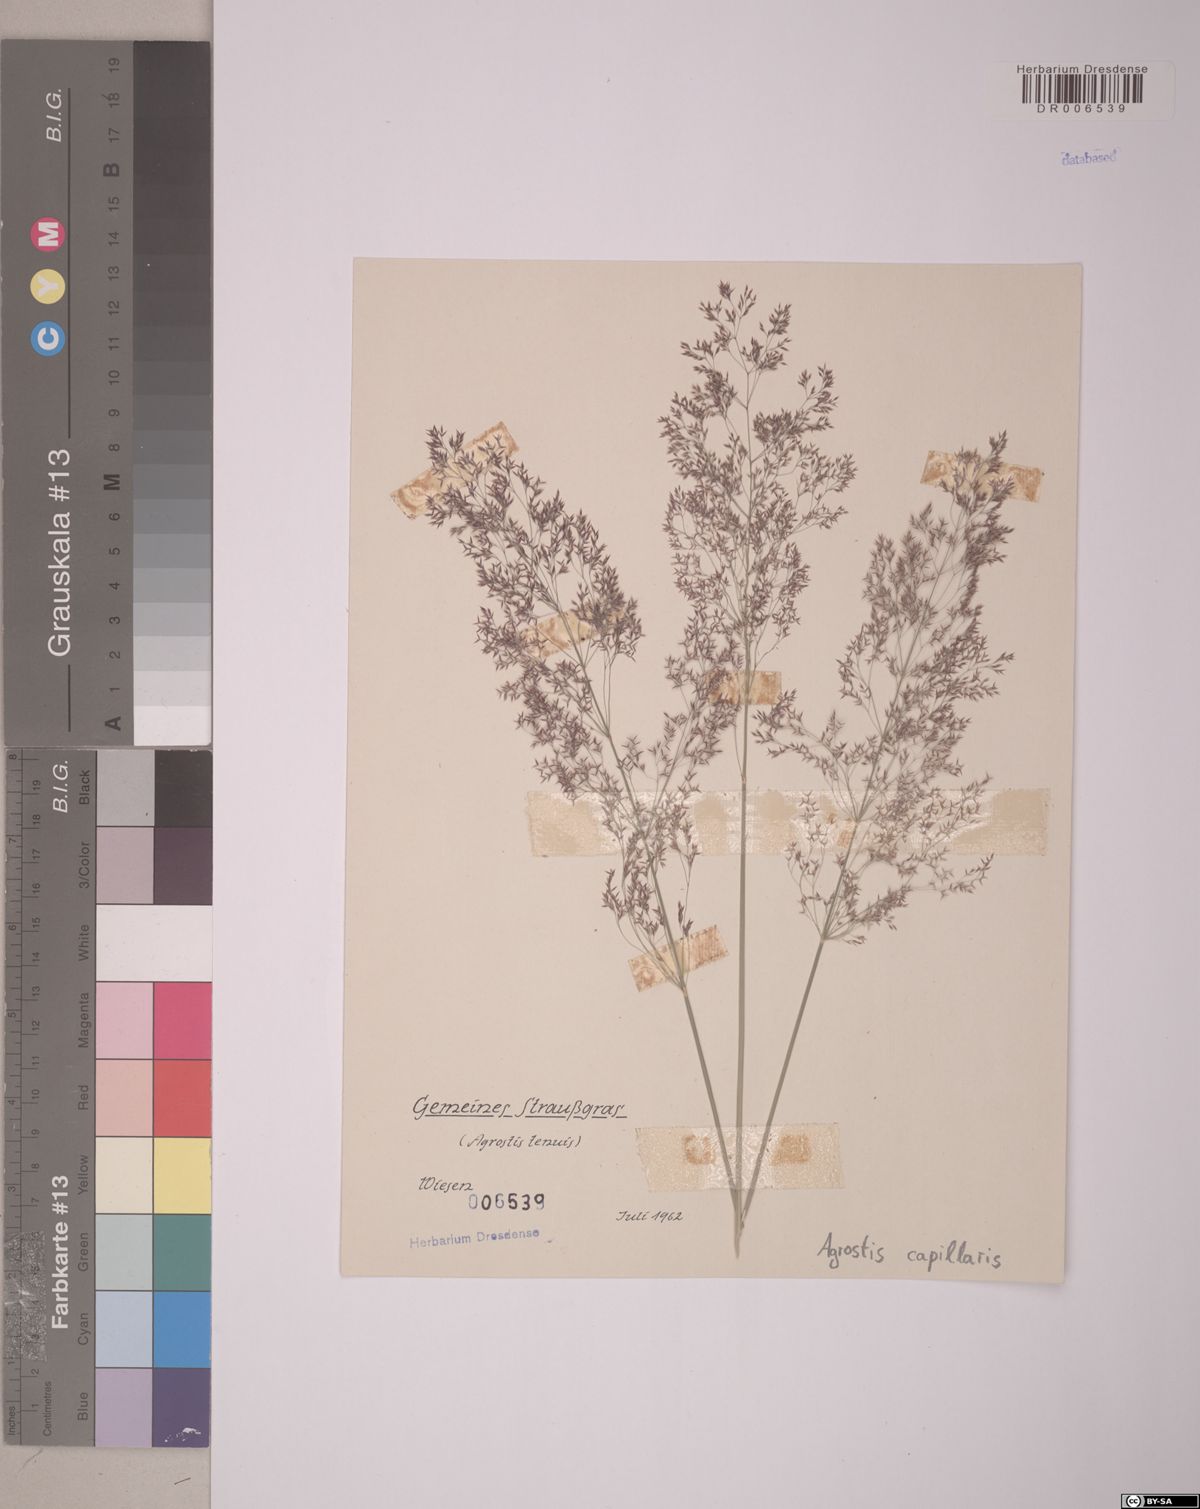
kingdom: Plantae
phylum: Tracheophyta
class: Liliopsida
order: Poales
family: Poaceae
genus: Agrostis
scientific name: Agrostis capillaris
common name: Colonial bentgrass
